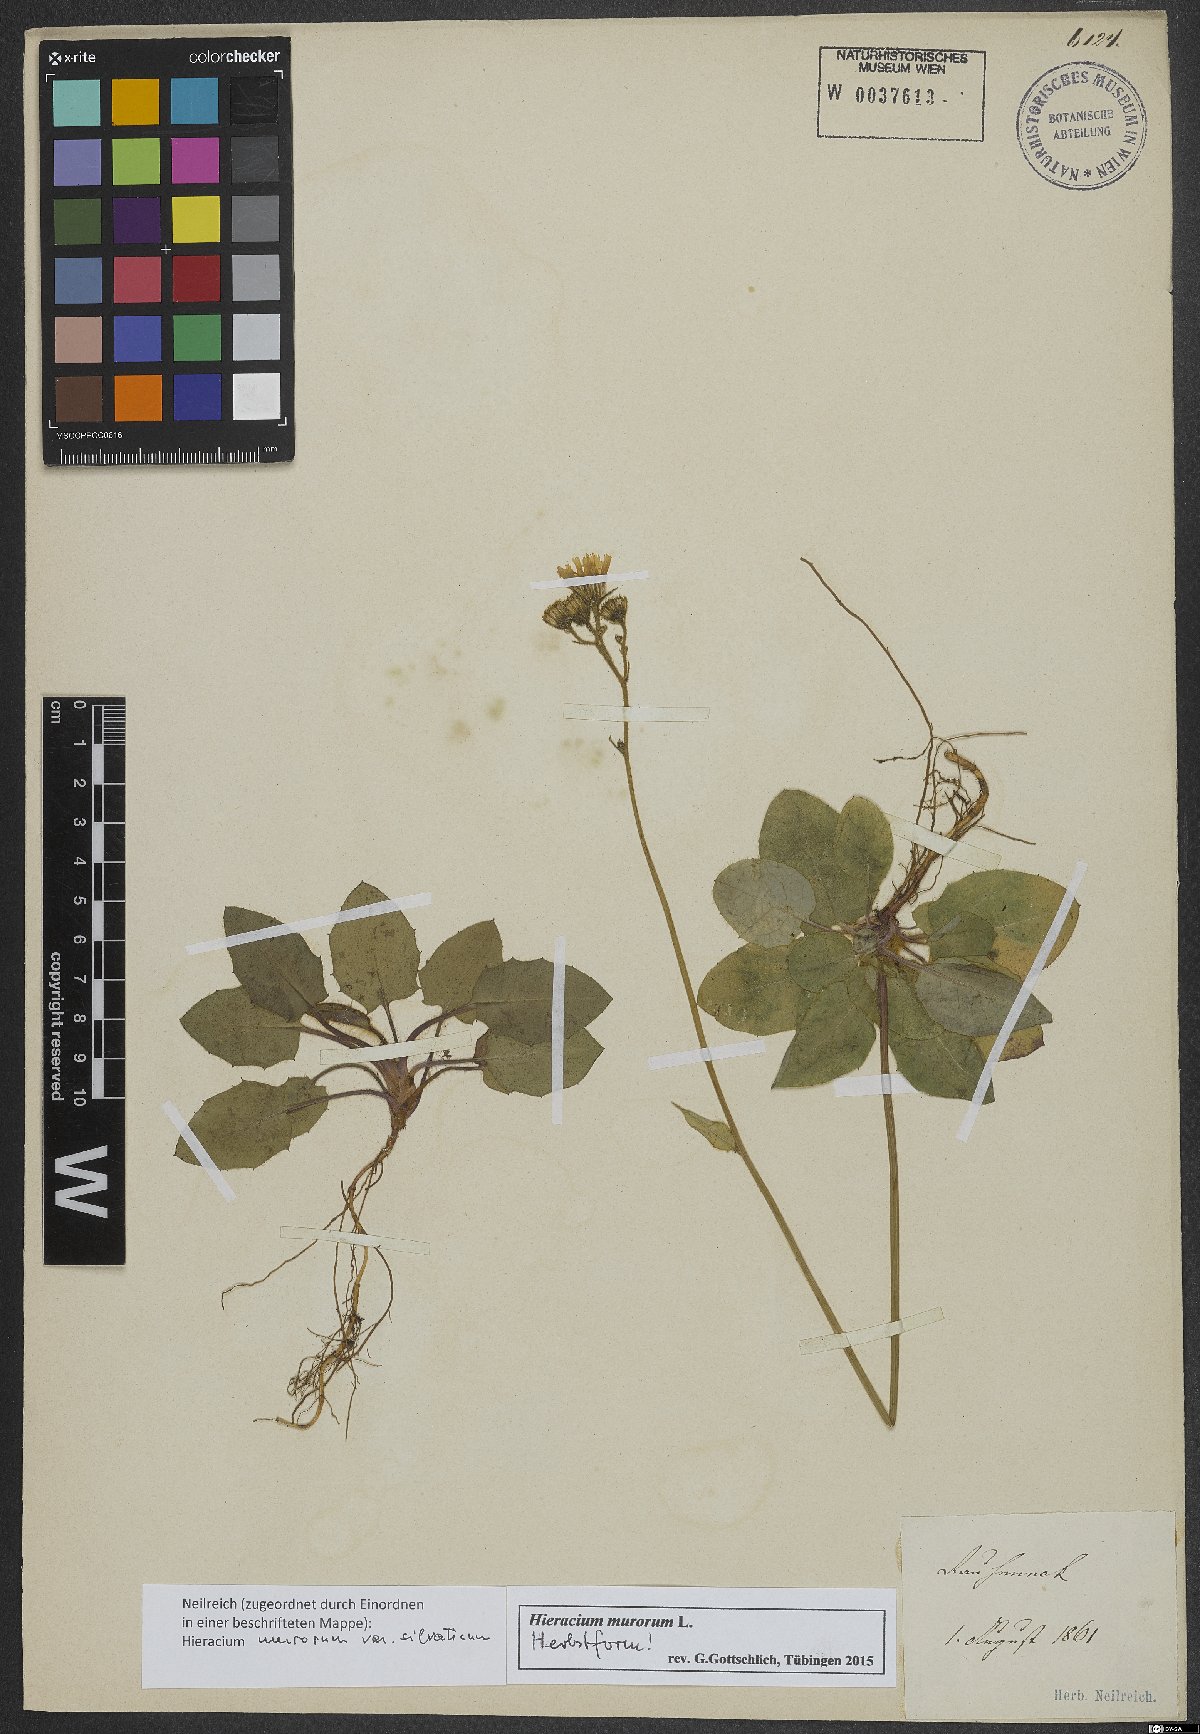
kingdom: Plantae
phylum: Tracheophyta
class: Magnoliopsida
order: Asterales
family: Asteraceae
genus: Hieracium
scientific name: Hieracium murorum
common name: Wall hawkweed
